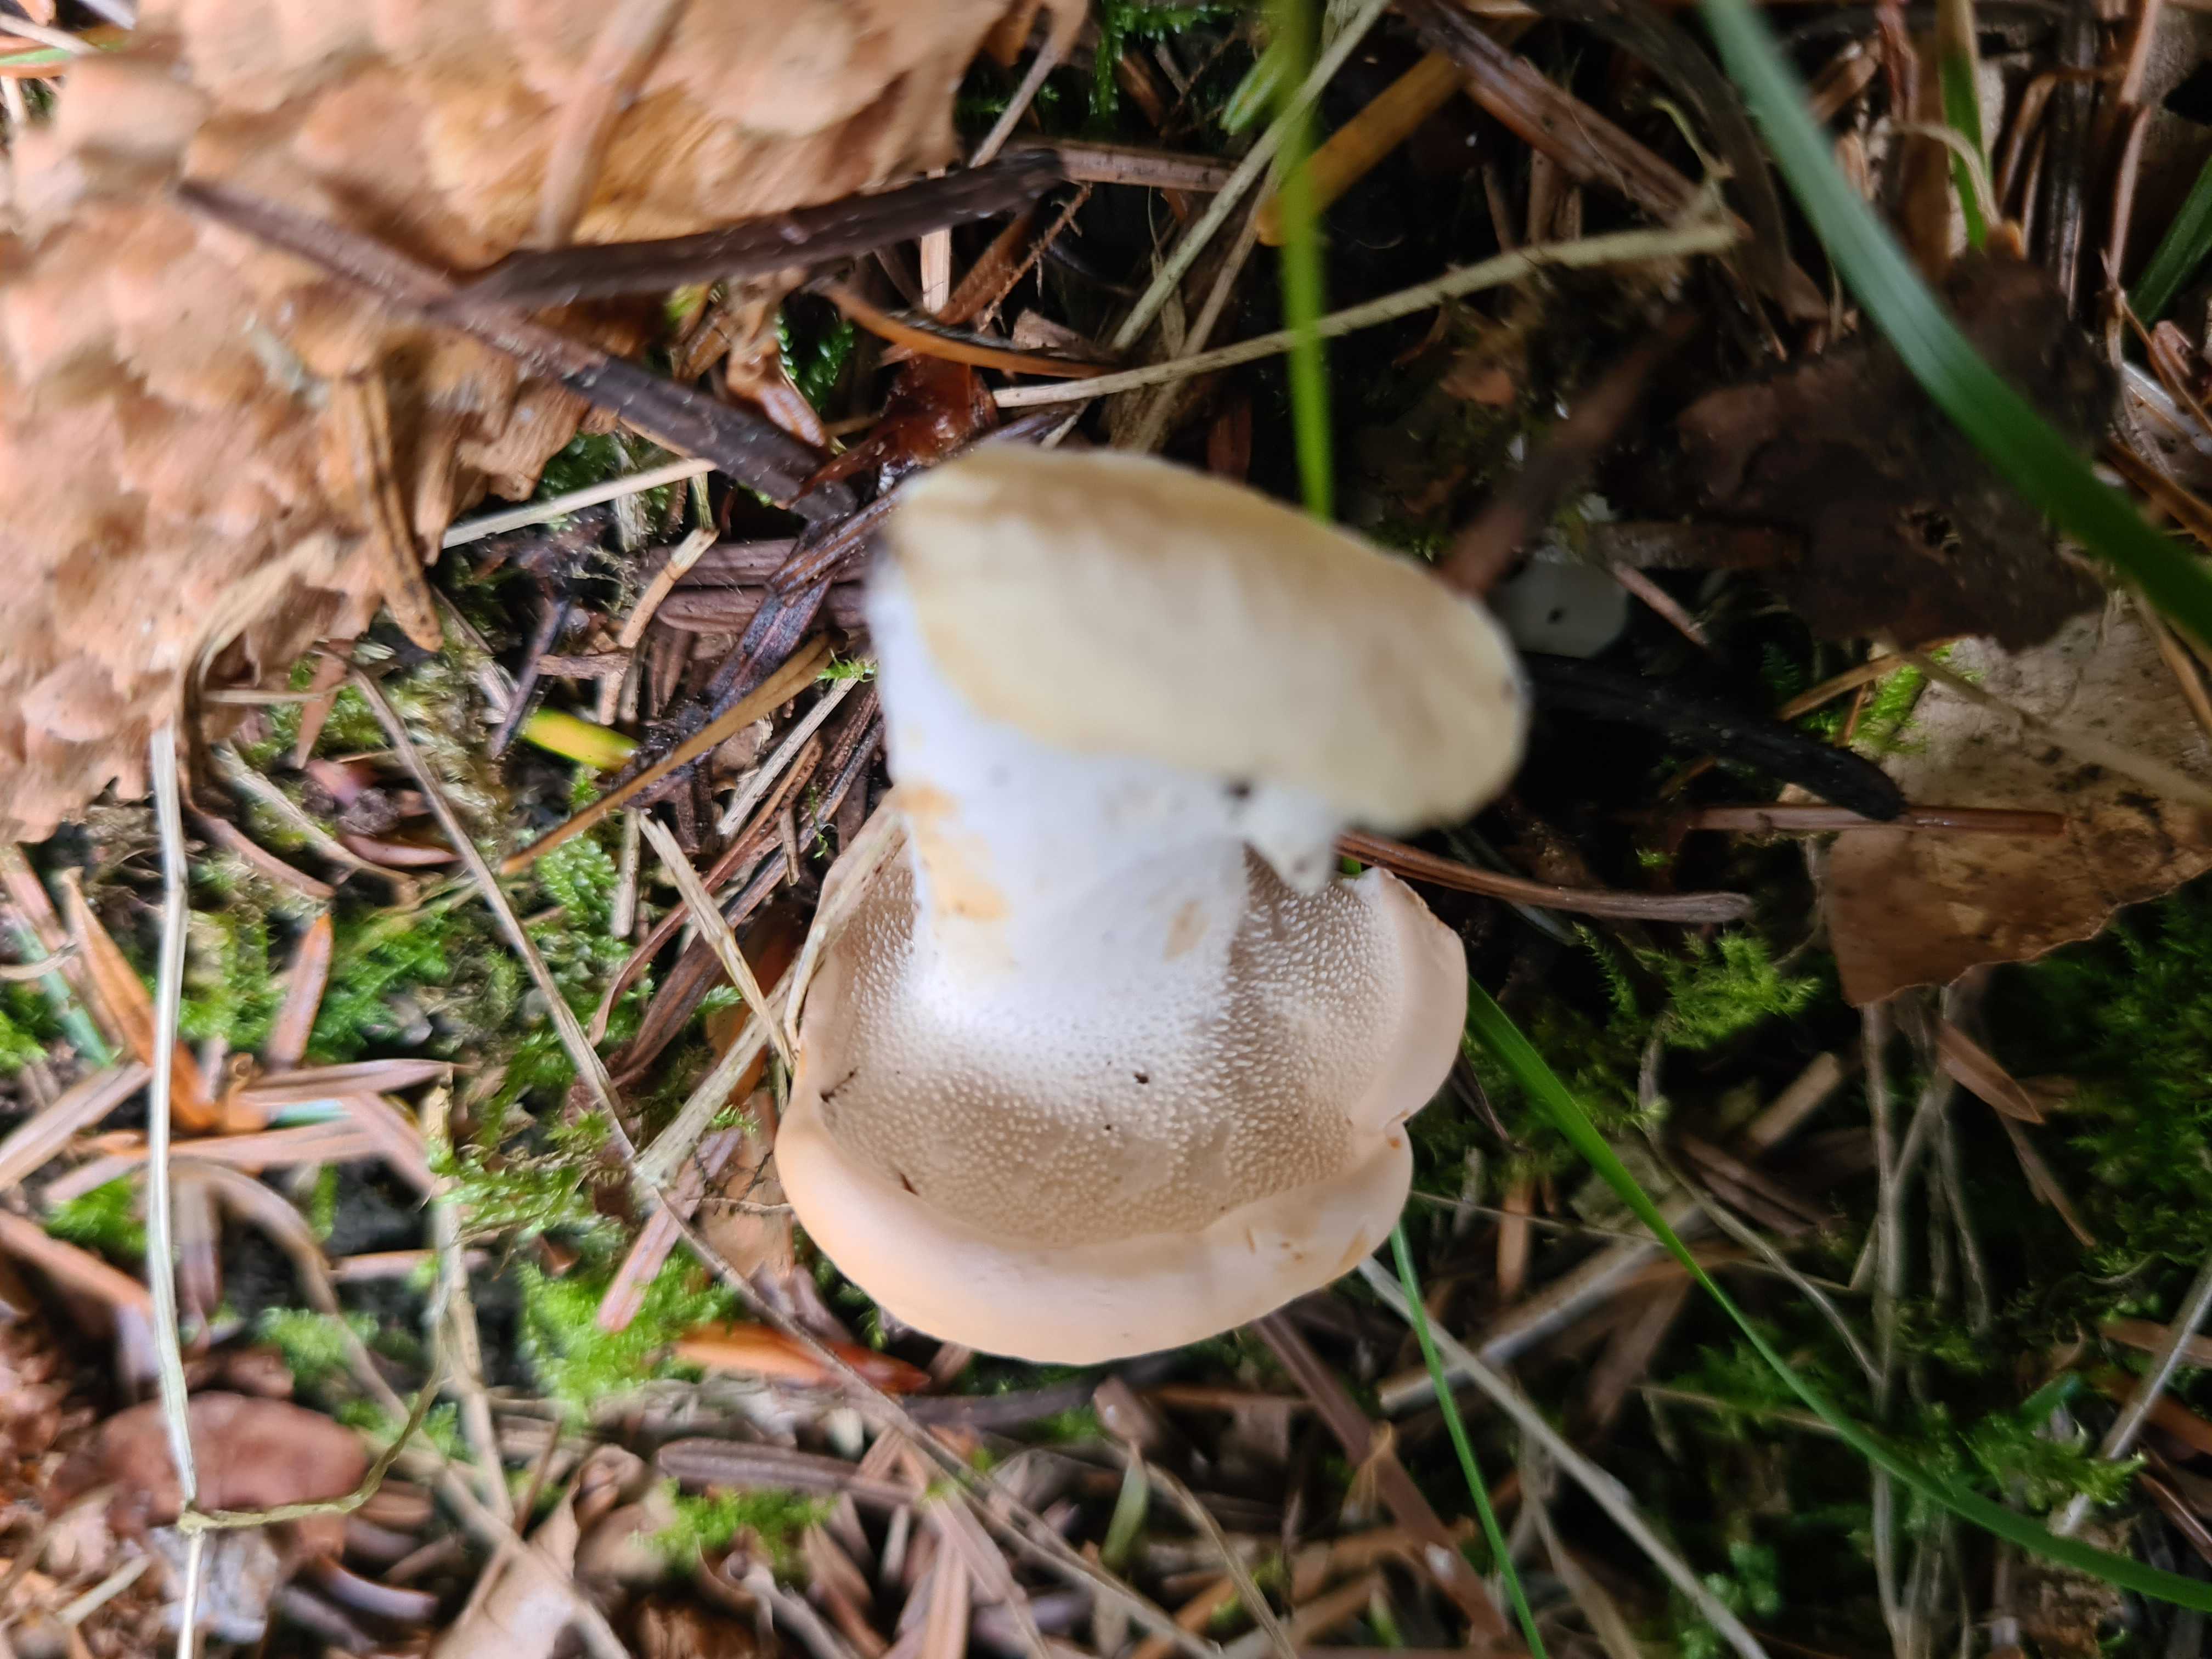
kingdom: Fungi
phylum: Basidiomycota
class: Agaricomycetes
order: Cantharellales
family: Hydnaceae
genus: Hydnum
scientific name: Hydnum repandum
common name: almindelig pigsvamp
